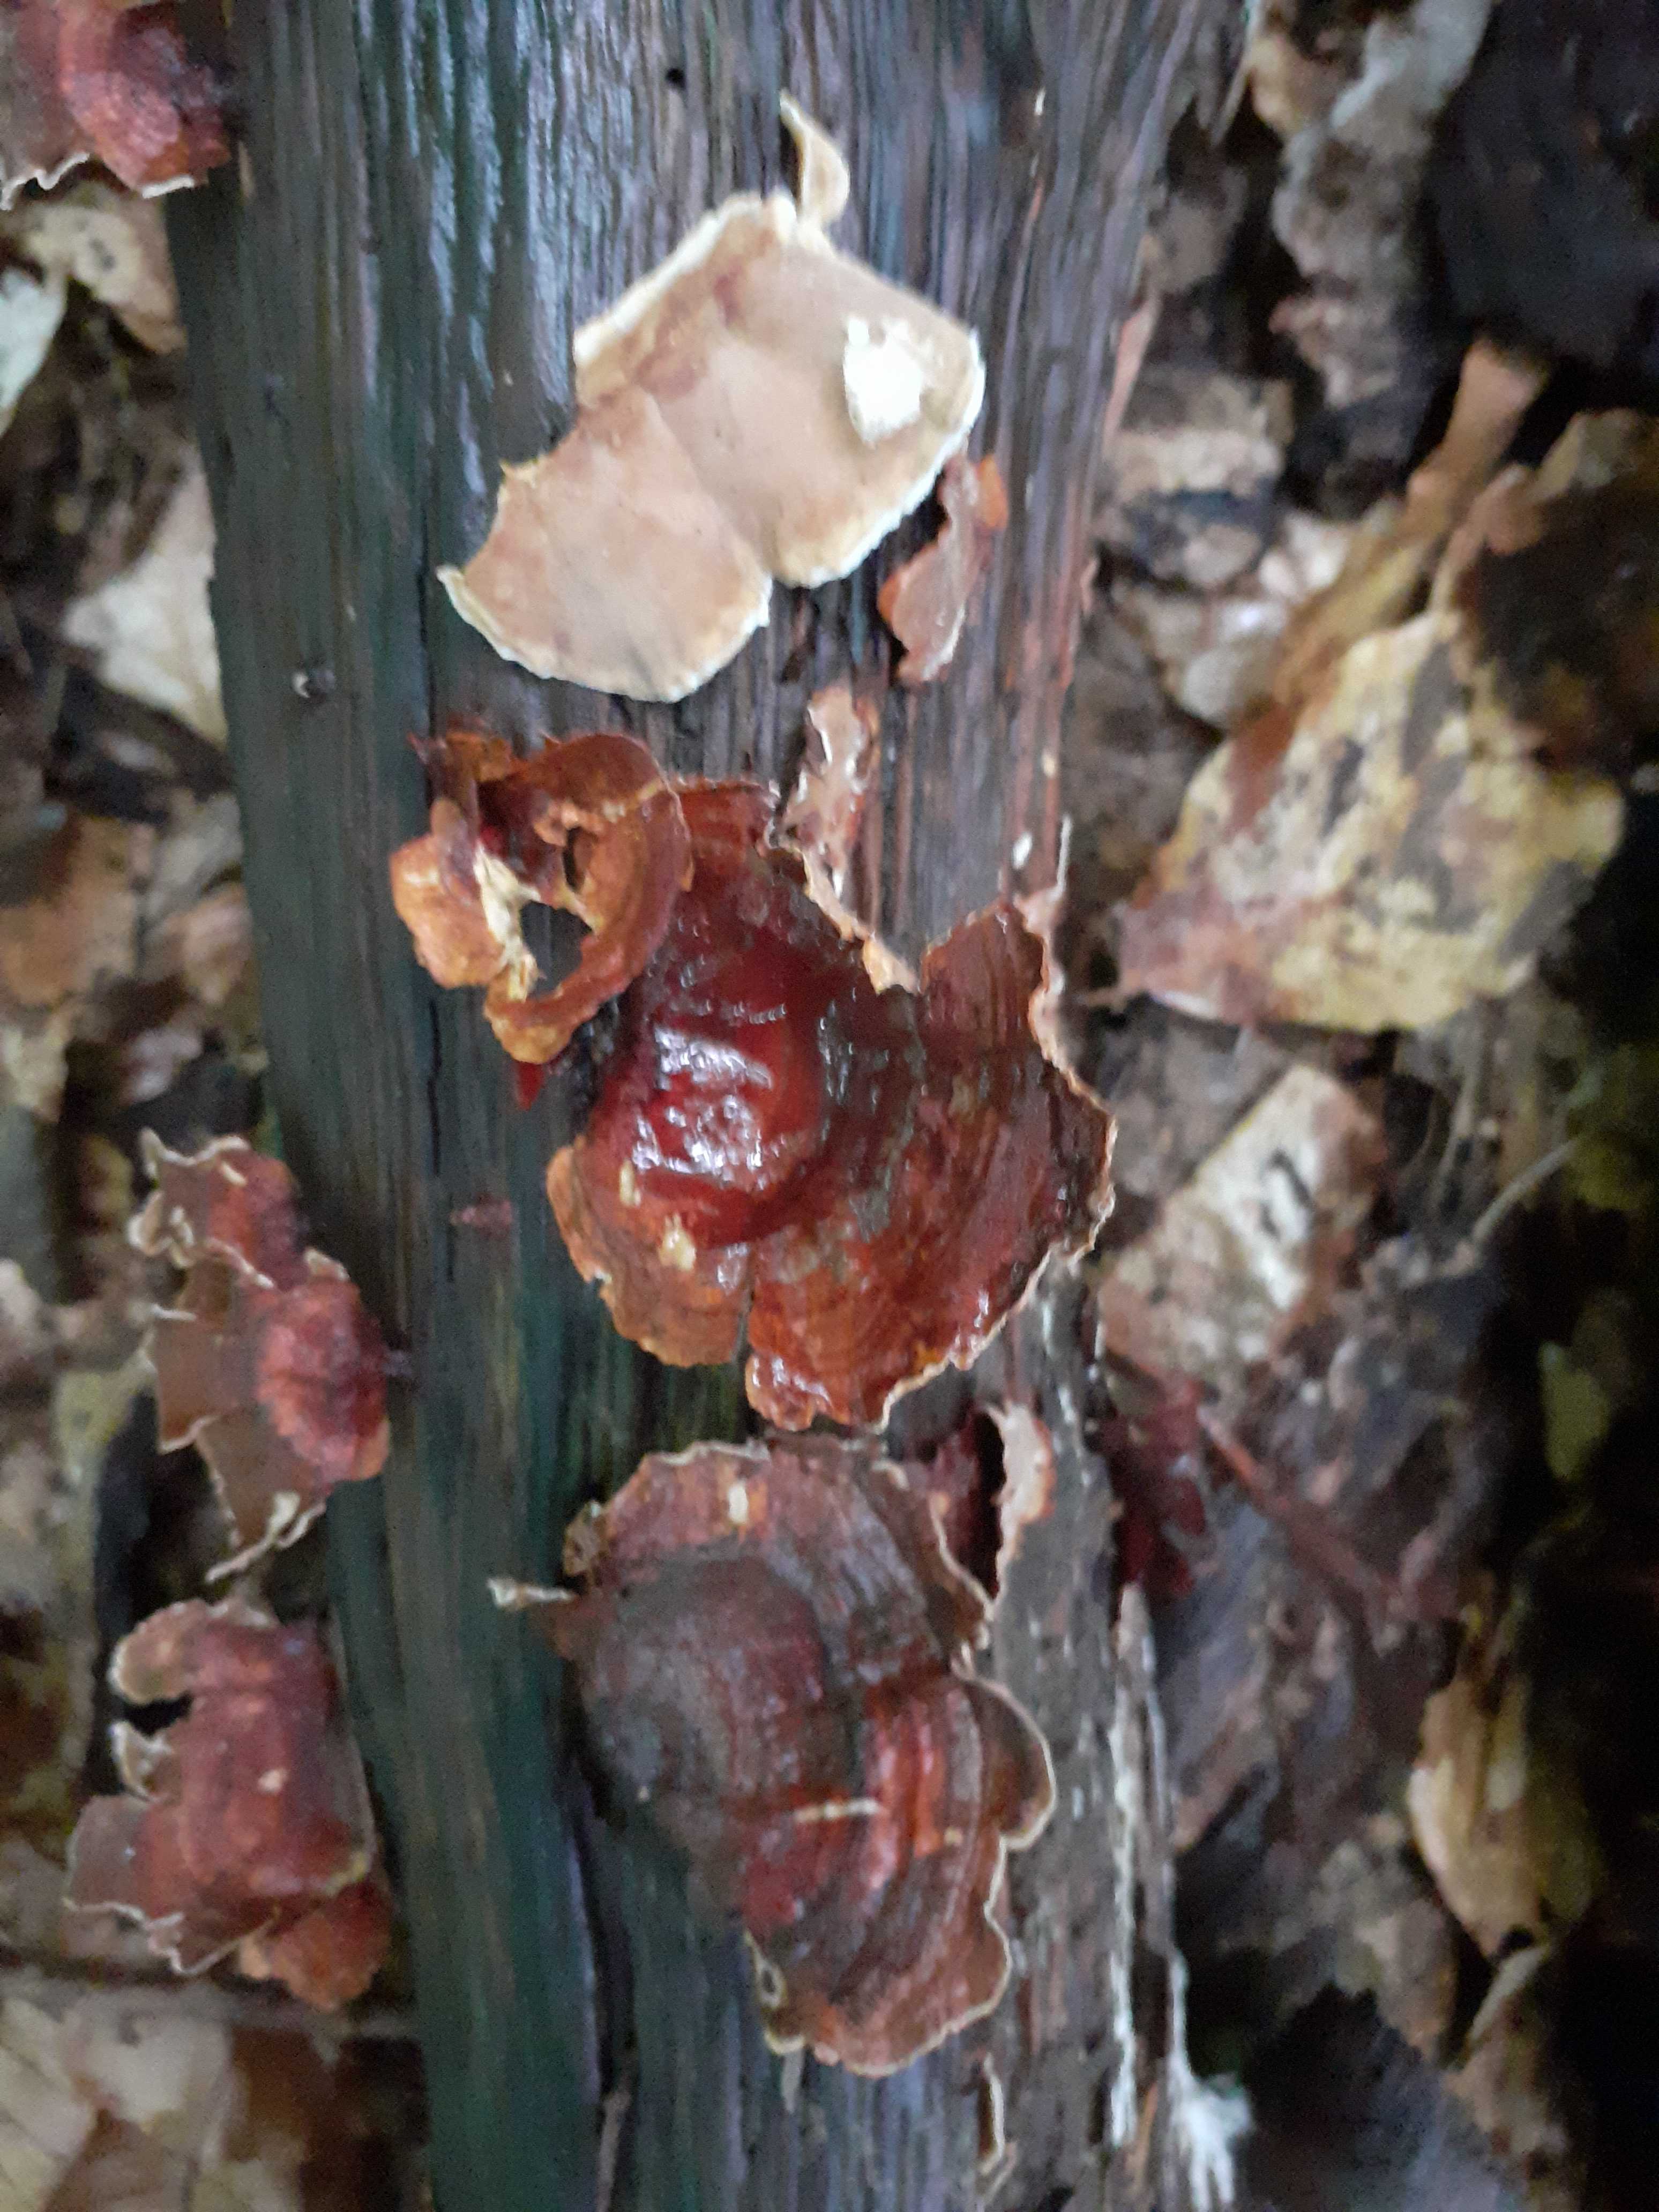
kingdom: Fungi
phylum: Basidiomycota
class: Agaricomycetes
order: Russulales
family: Stereaceae
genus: Stereum
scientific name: Stereum subtomentosum
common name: smuk lædersvamp
